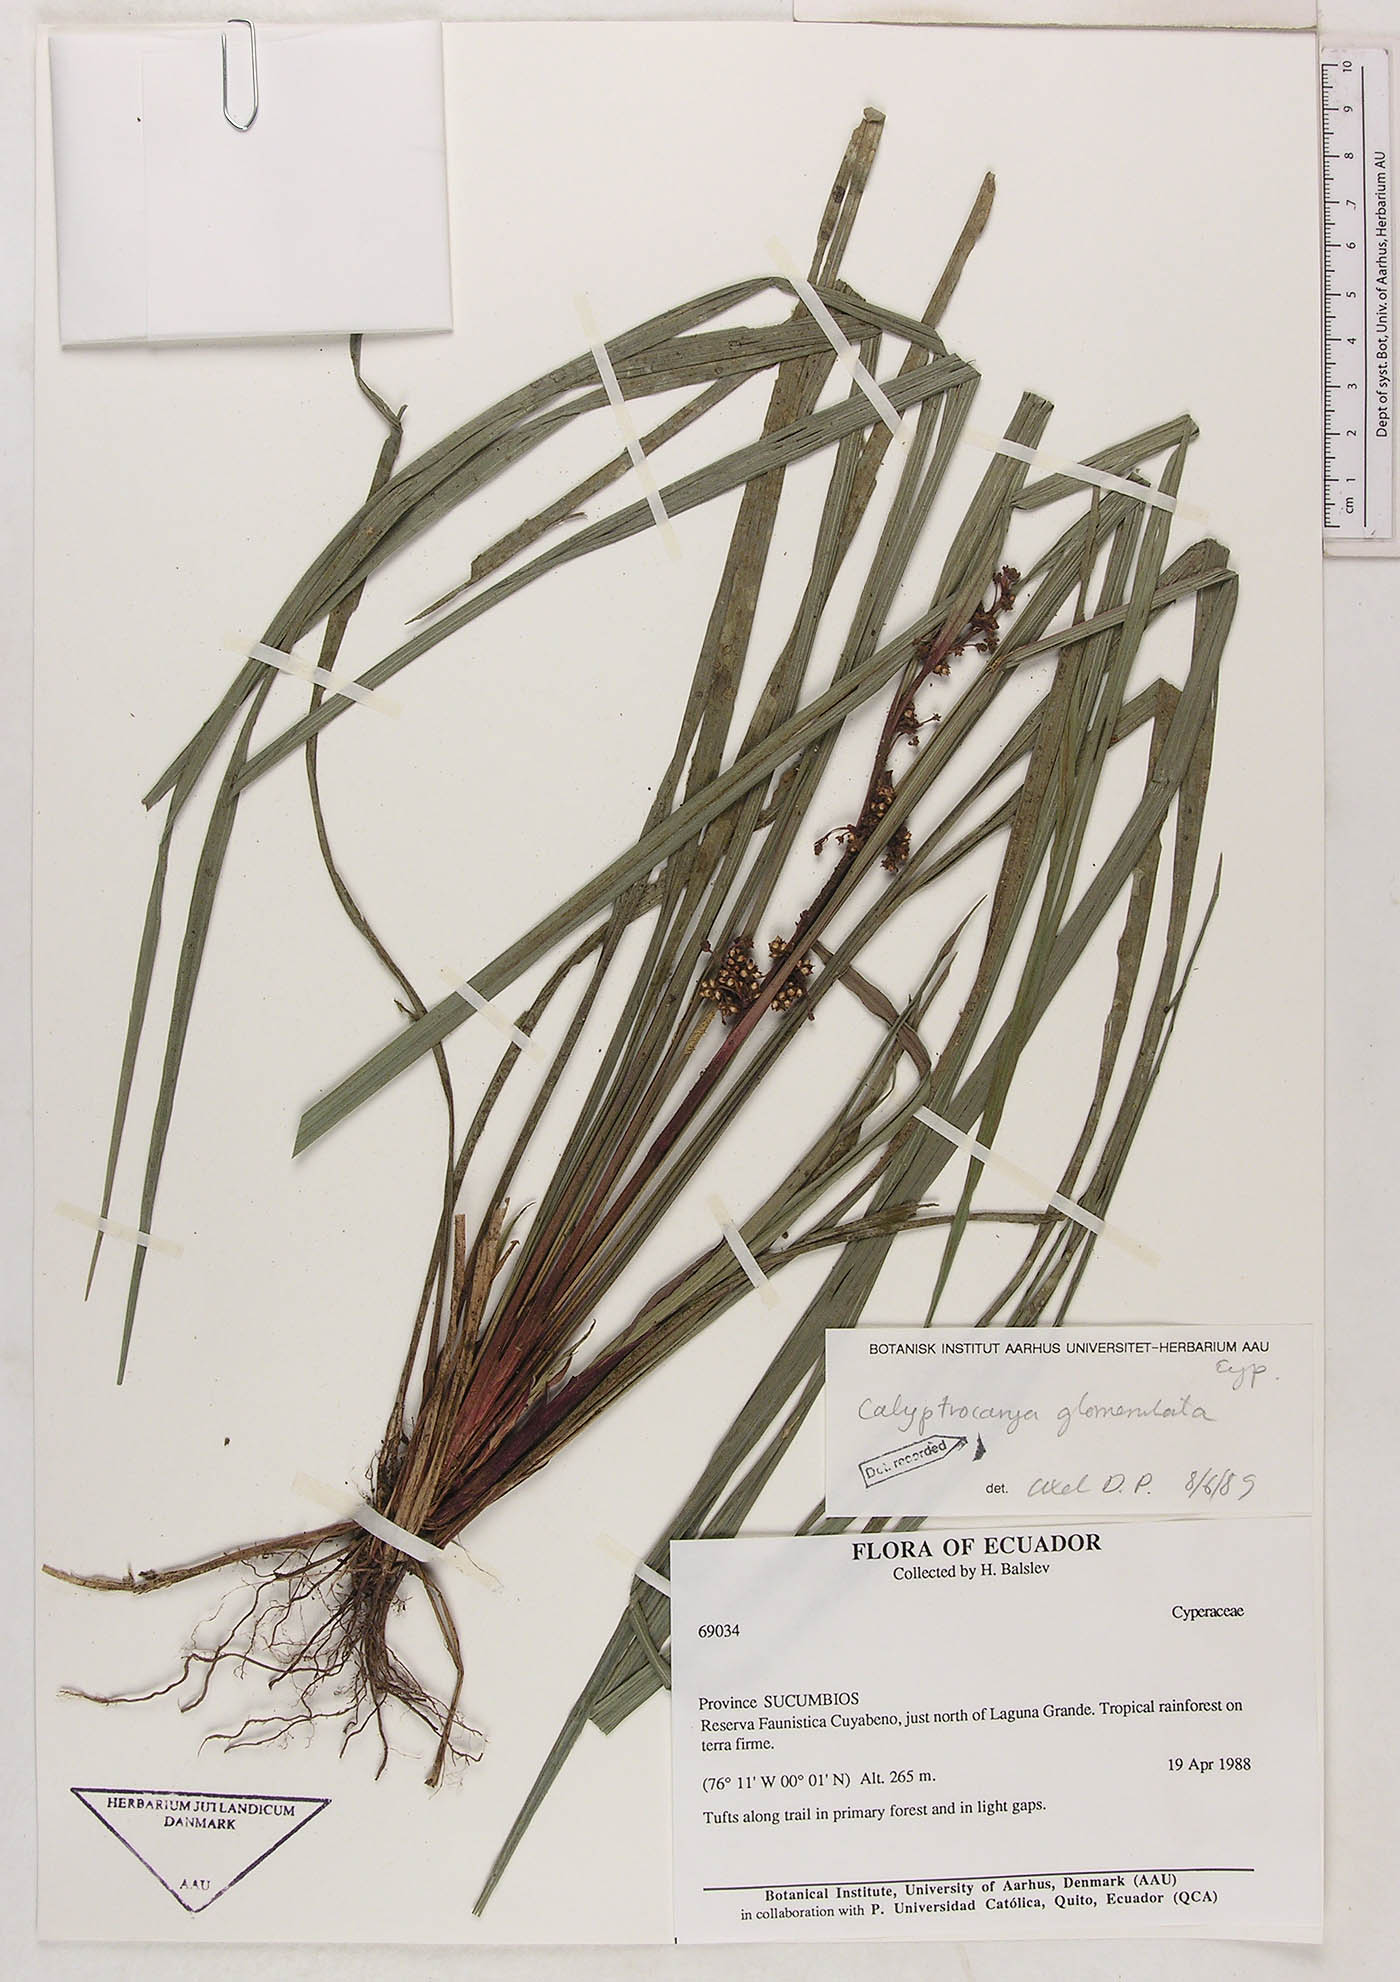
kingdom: Plantae
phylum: Tracheophyta
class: Liliopsida
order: Poales
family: Cyperaceae
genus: Calyptrocarya
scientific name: Calyptrocarya glomerulata
